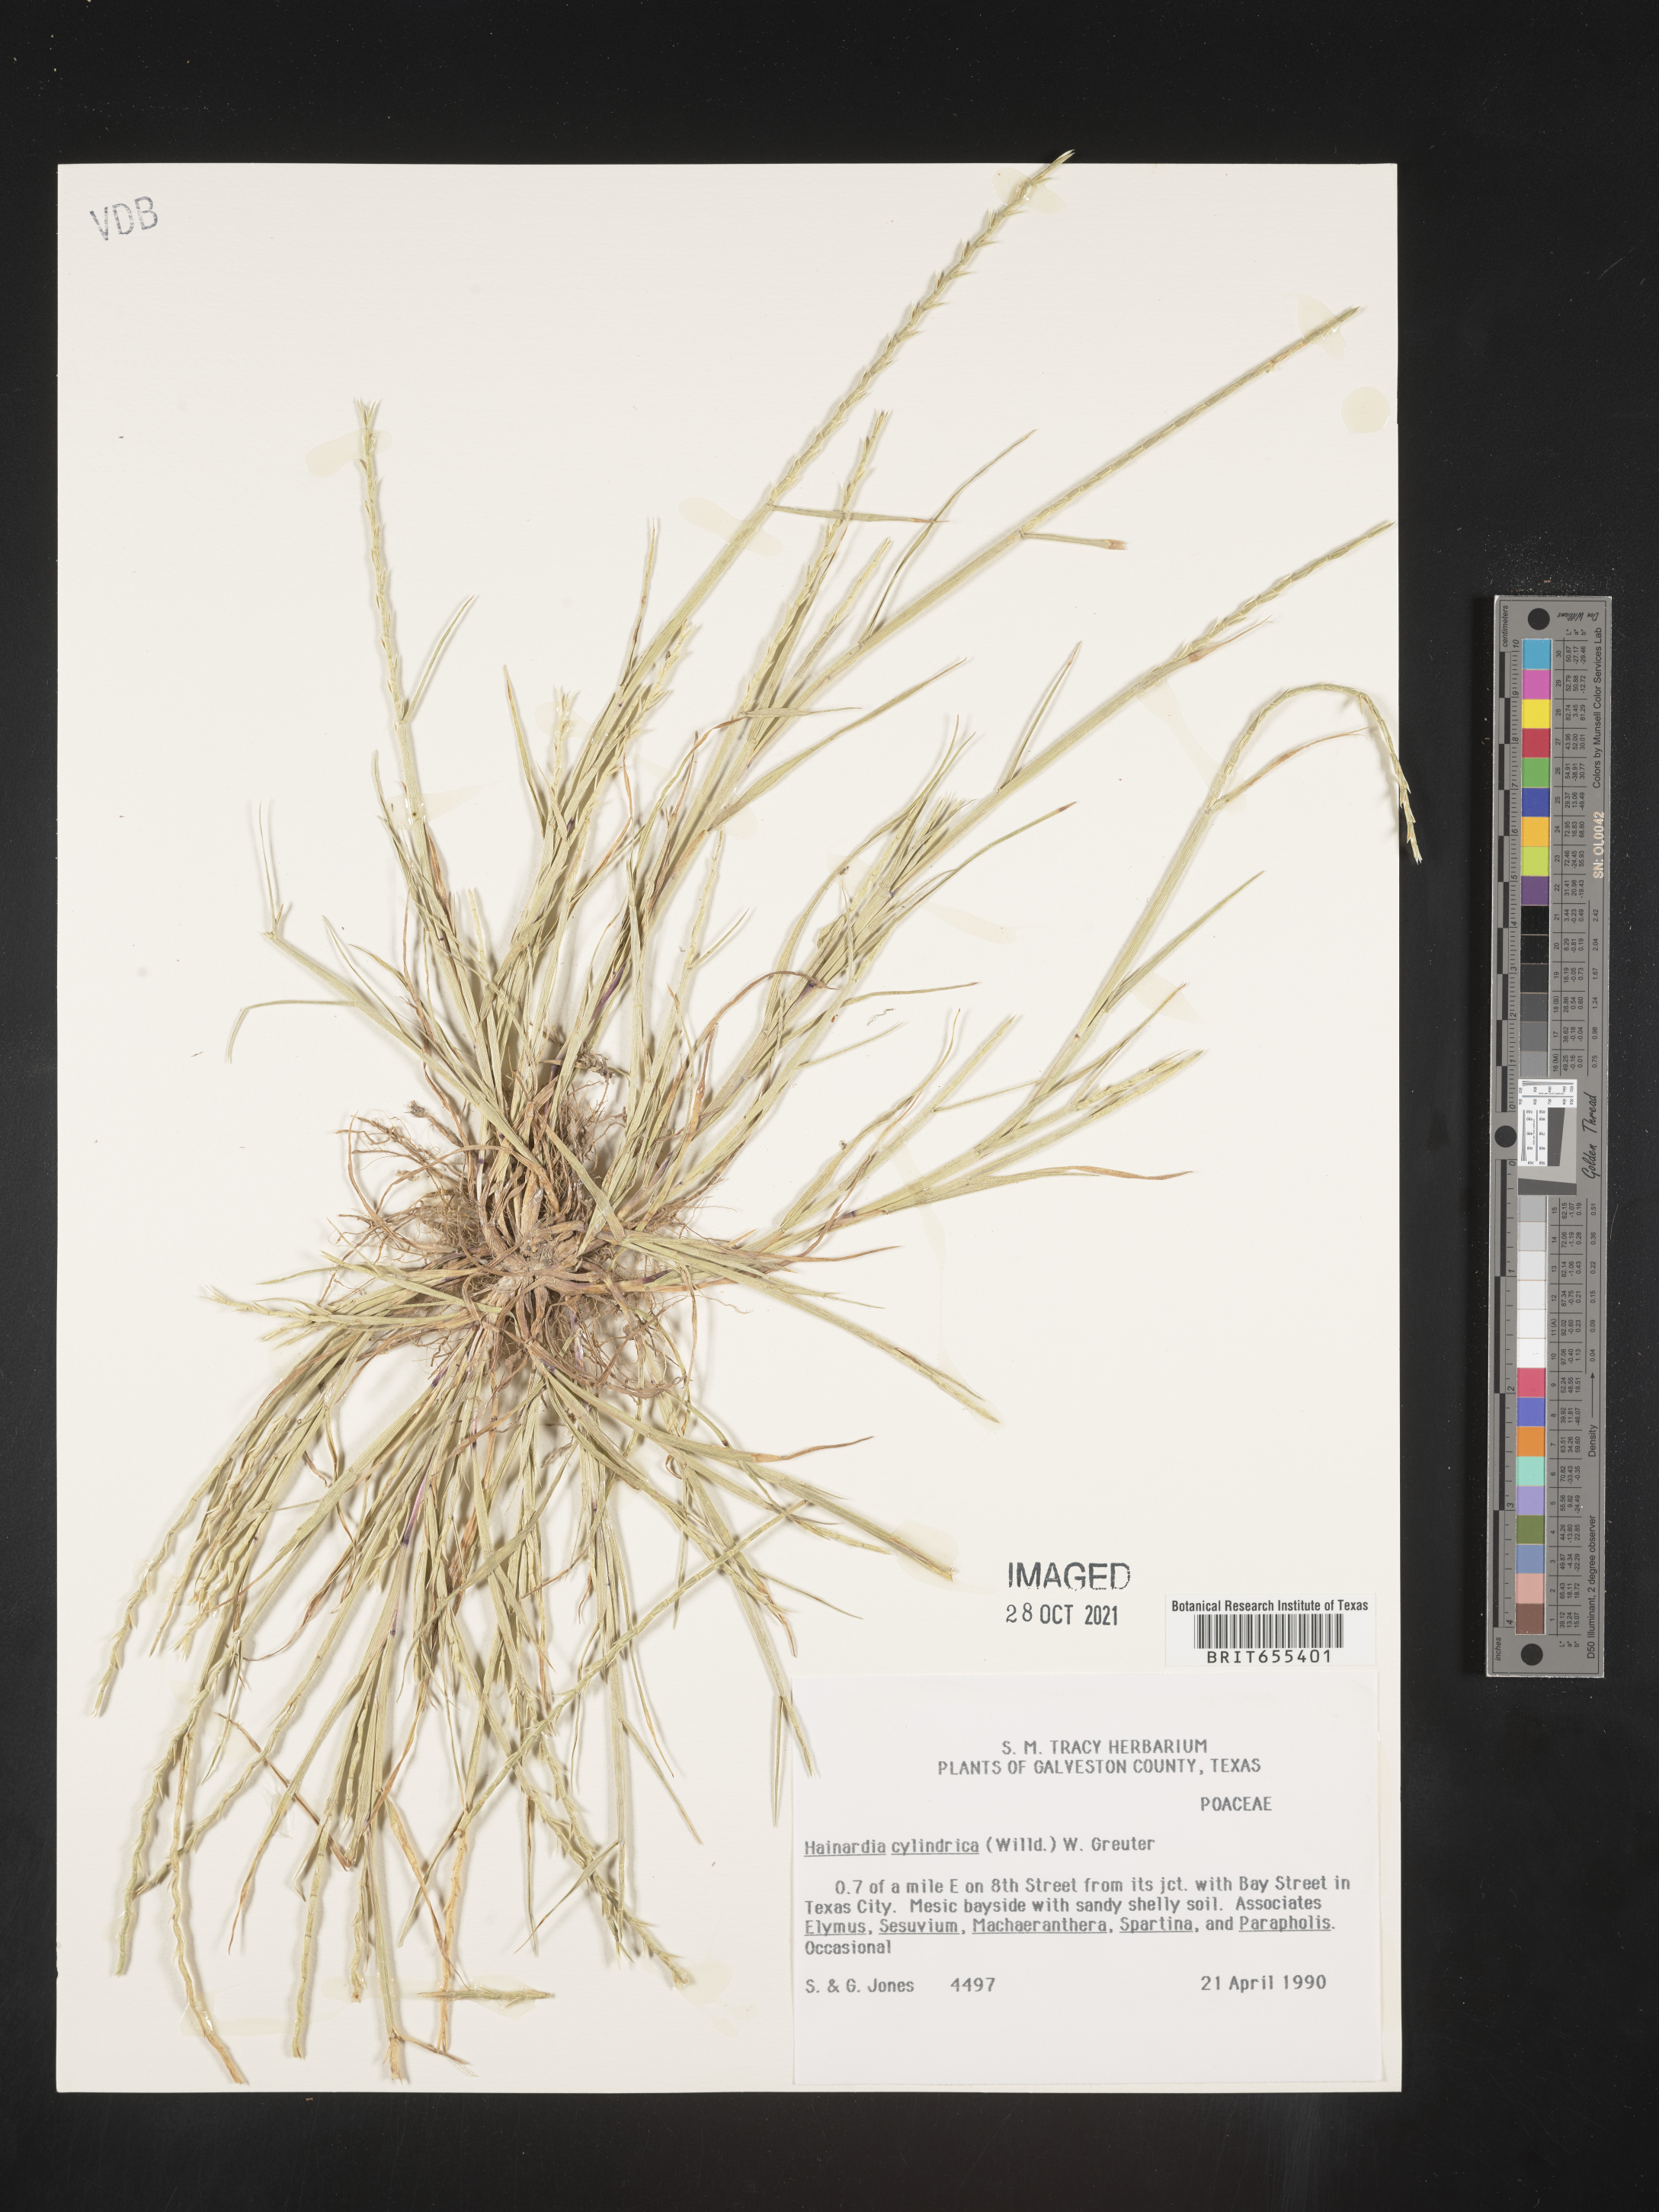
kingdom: Plantae
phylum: Tracheophyta
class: Liliopsida
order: Poales
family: Poaceae
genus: Parapholis
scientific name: Parapholis cylindrica
